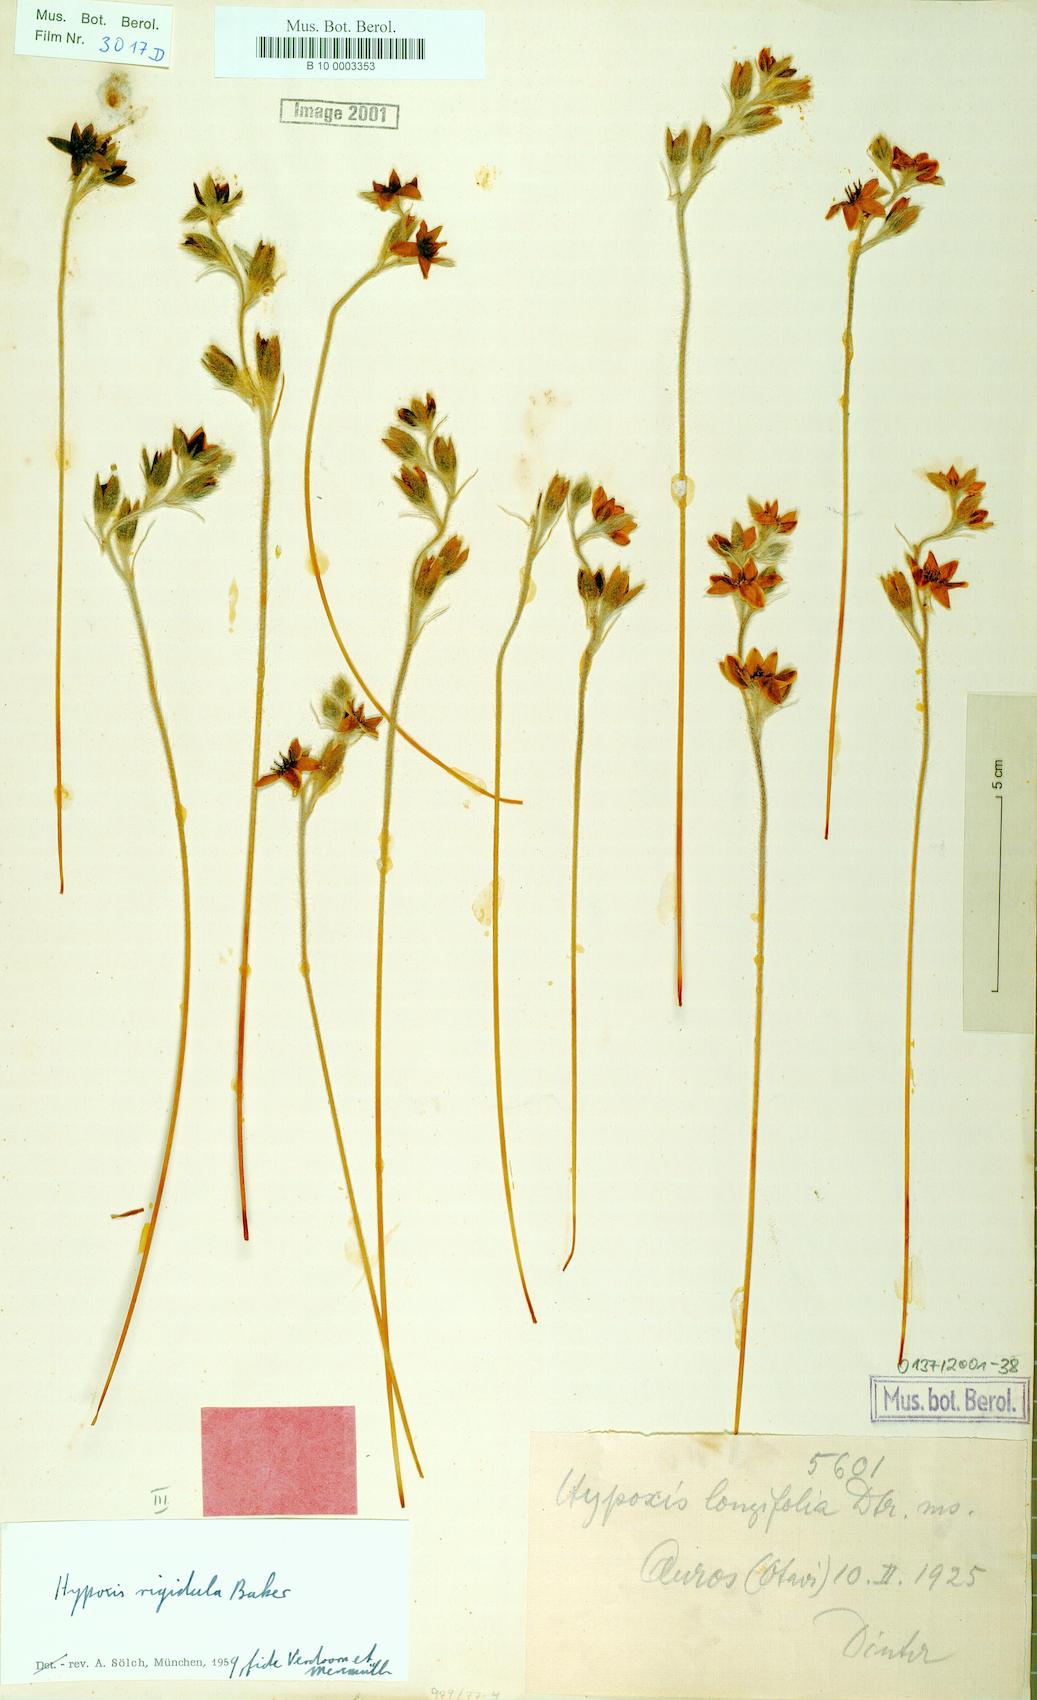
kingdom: Plantae
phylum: Tracheophyta
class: Liliopsida
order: Asparagales
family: Hypoxidaceae
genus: Hypoxis
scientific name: Hypoxis rigidula
